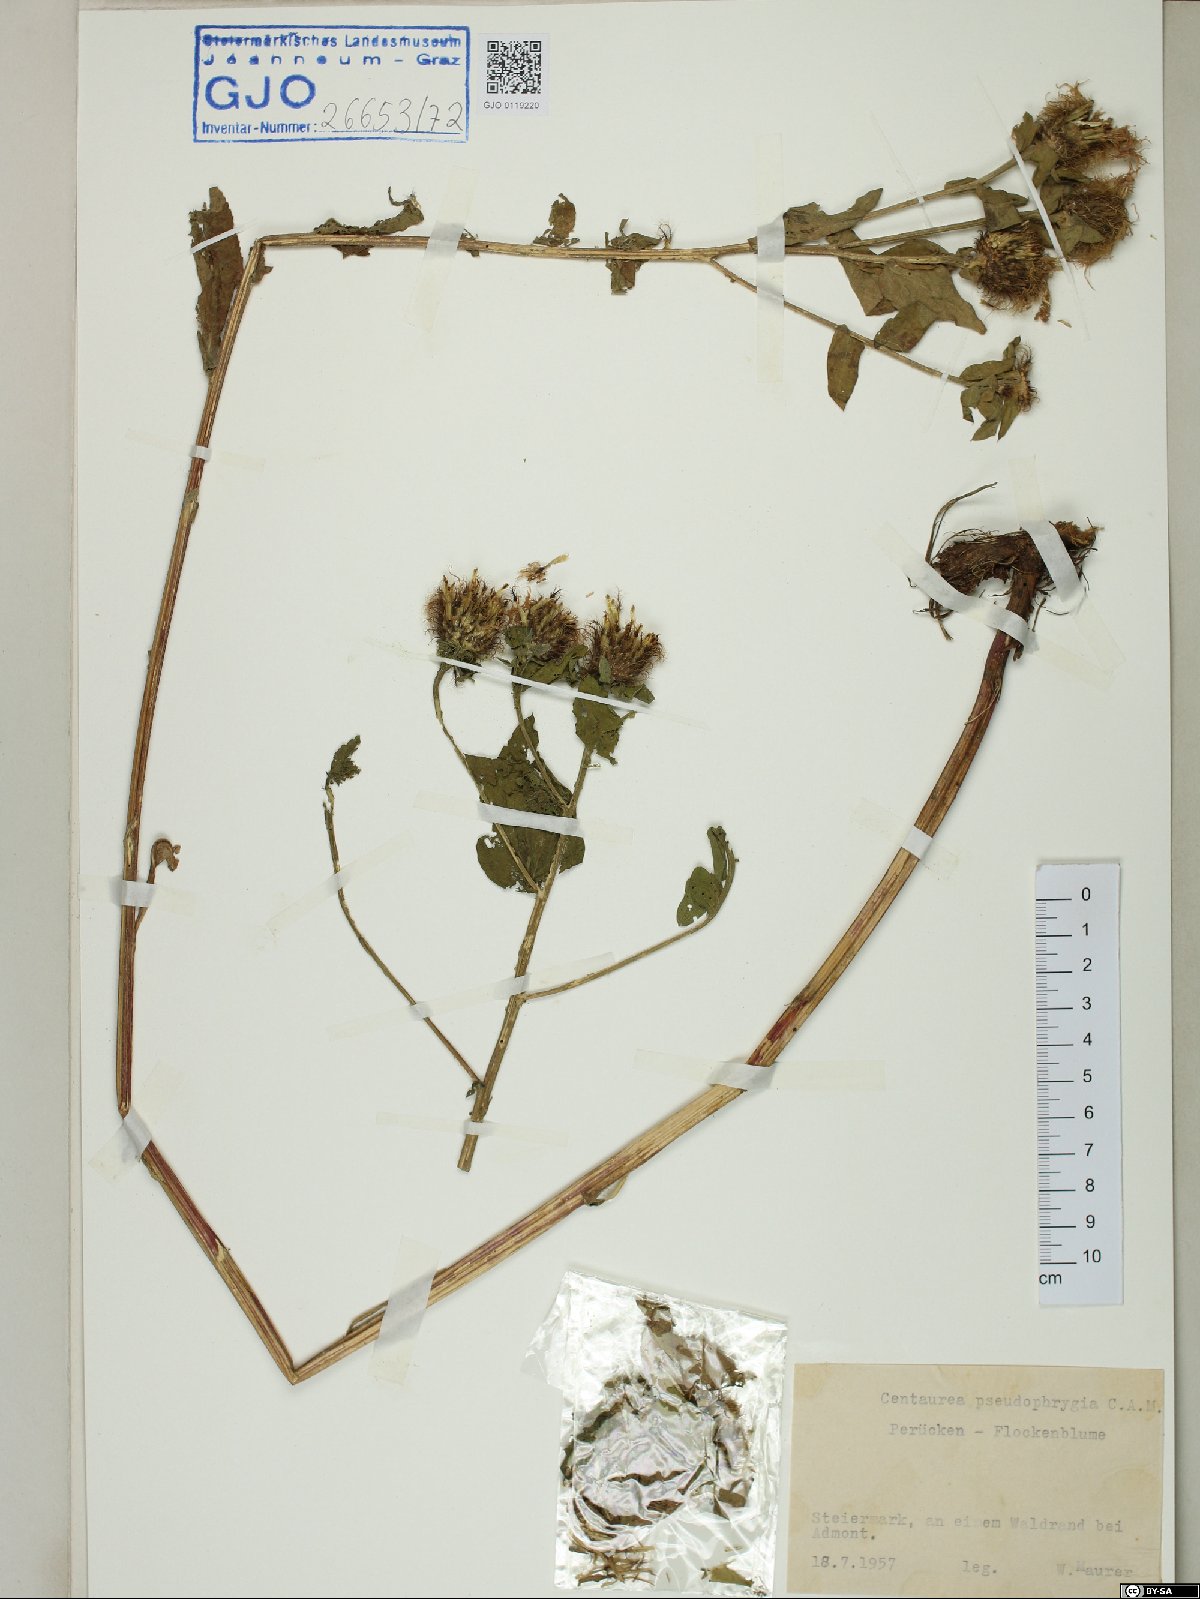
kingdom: Plantae
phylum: Tracheophyta
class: Magnoliopsida
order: Asterales
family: Asteraceae
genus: Centaurea
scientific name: Centaurea pseudophrygia
